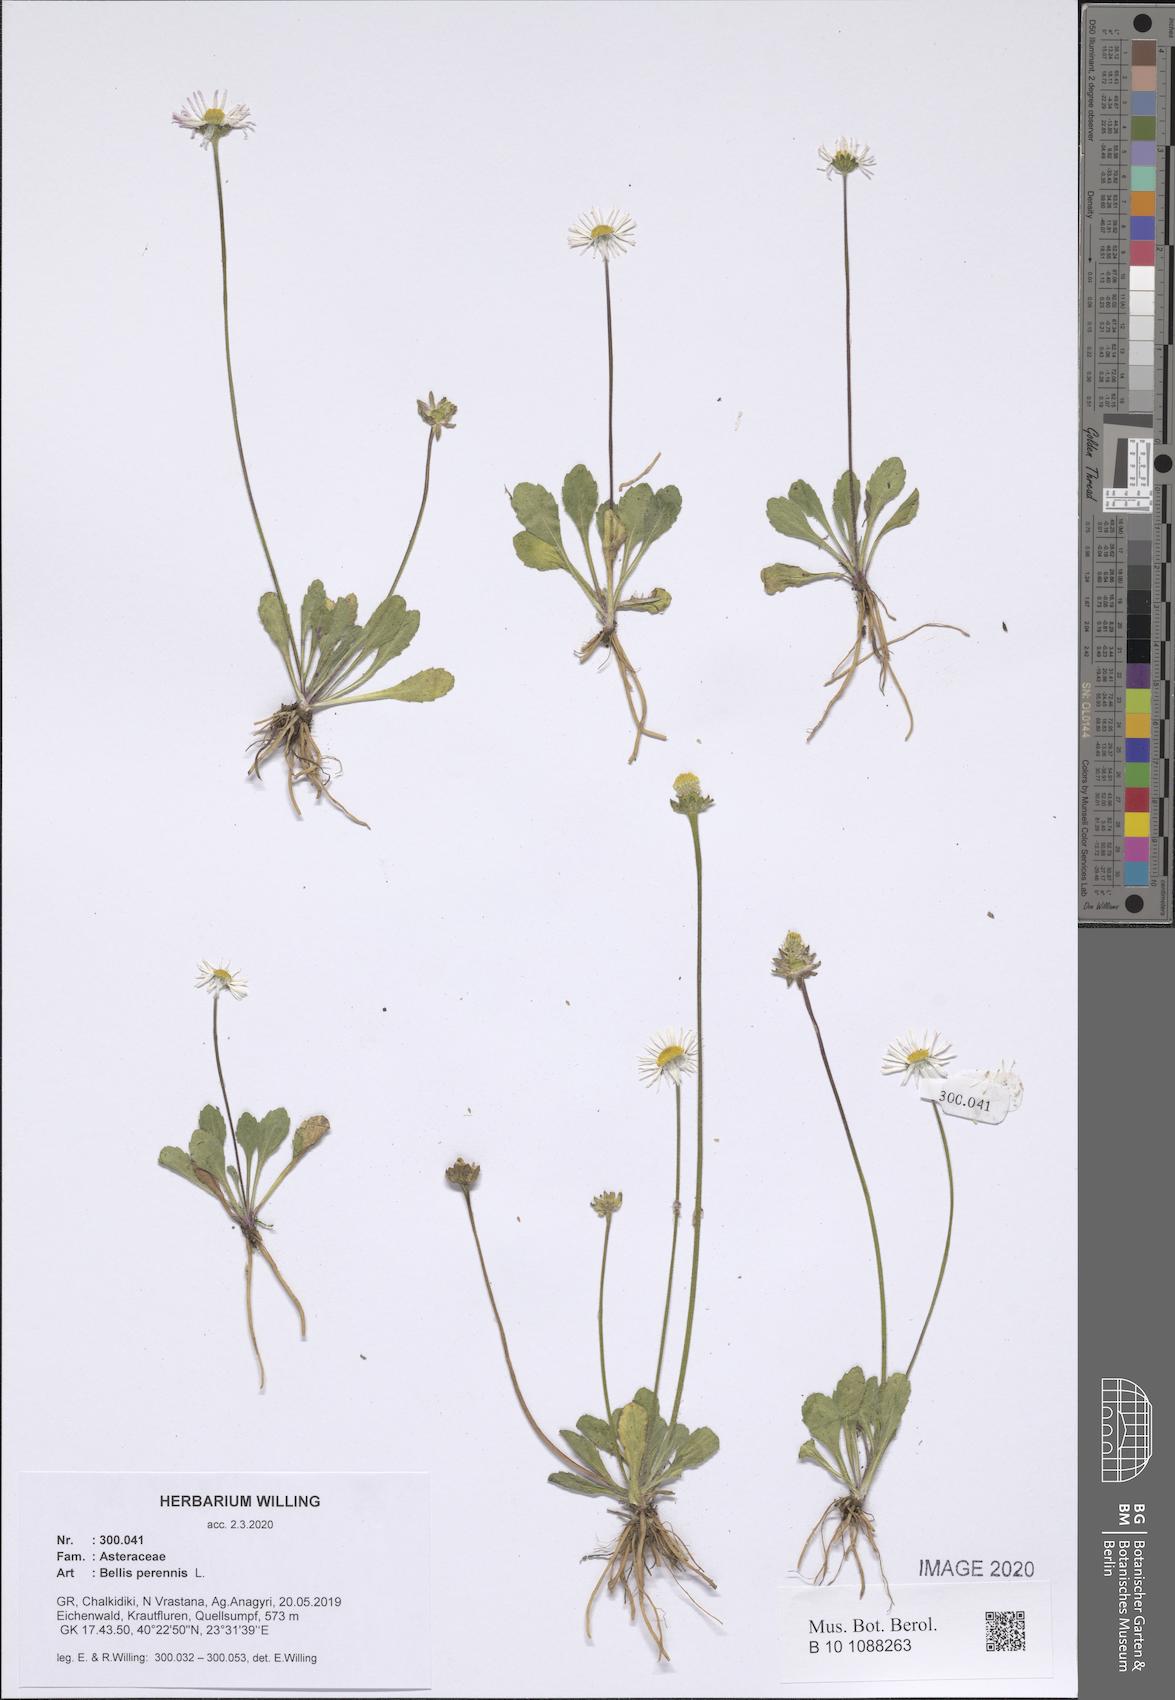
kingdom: Plantae
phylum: Tracheophyta
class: Magnoliopsida
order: Asterales
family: Asteraceae
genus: Bellis
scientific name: Bellis perennis
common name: Lawndaisy
